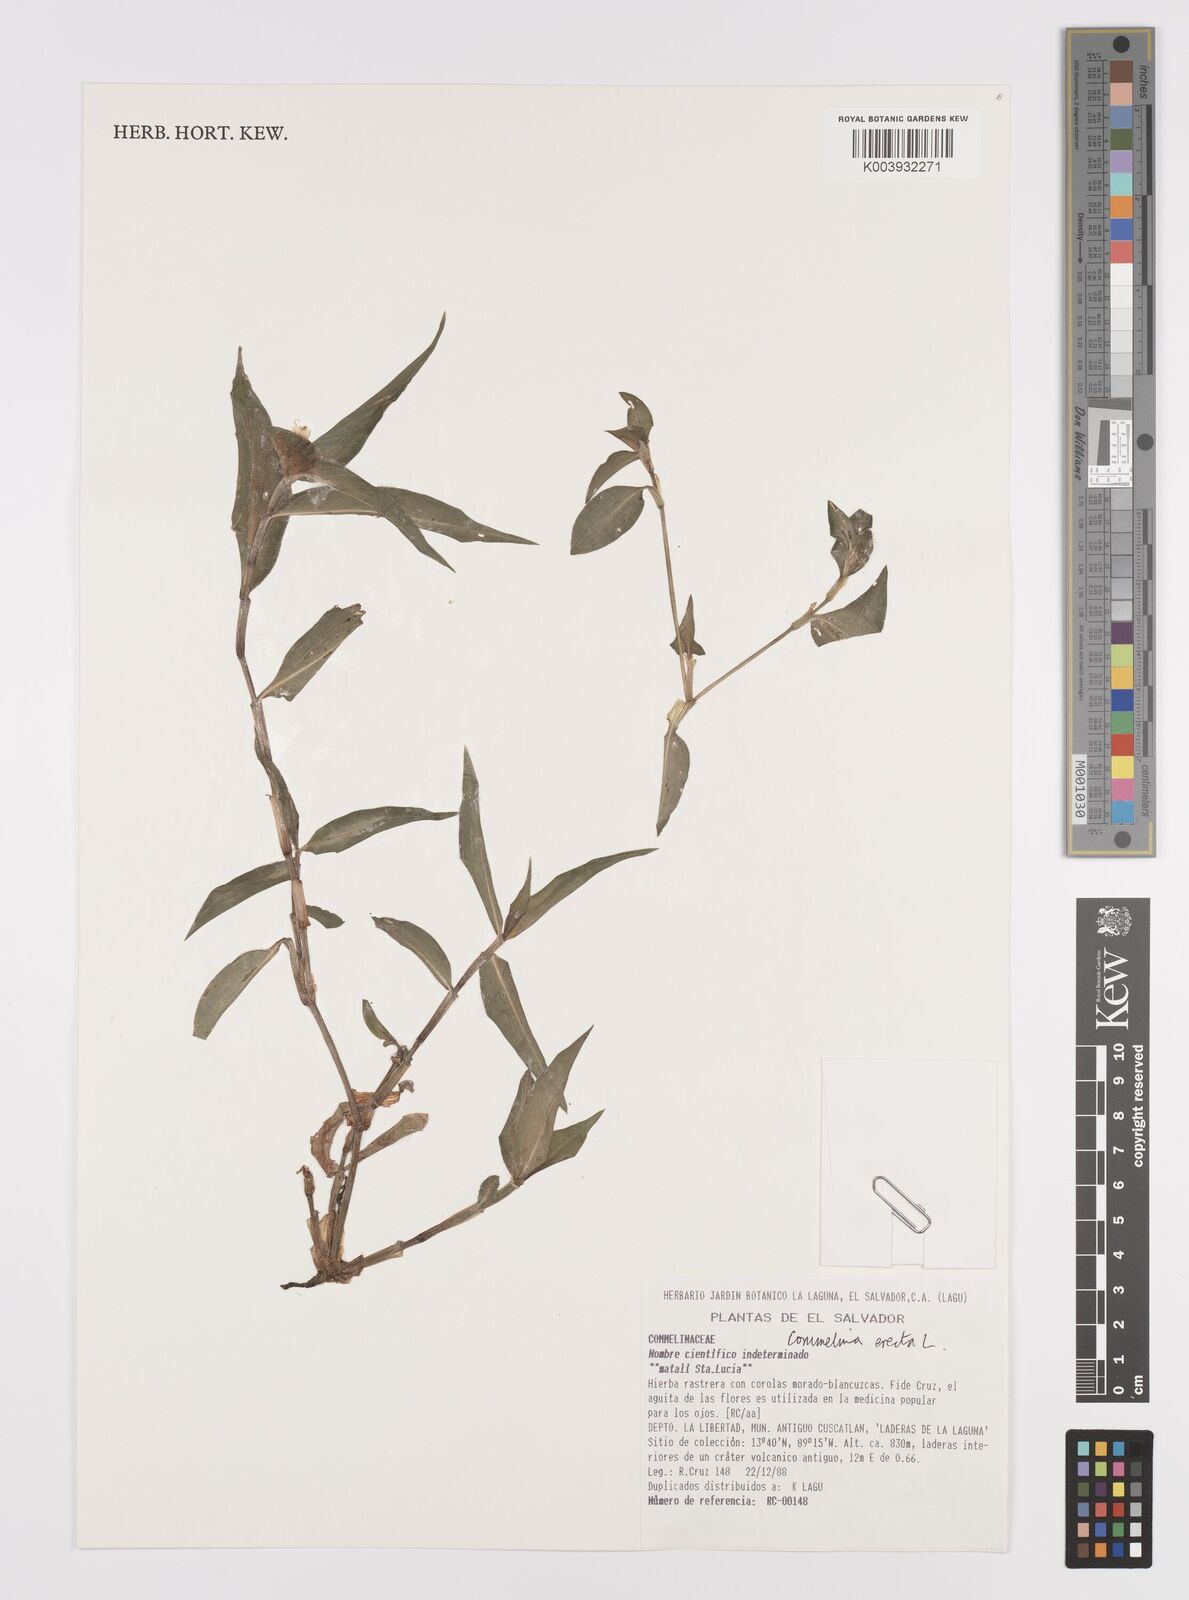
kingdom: Plantae
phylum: Tracheophyta
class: Liliopsida
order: Commelinales
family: Commelinaceae
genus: Commelina
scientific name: Commelina erecta
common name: Blousel blommetjie
